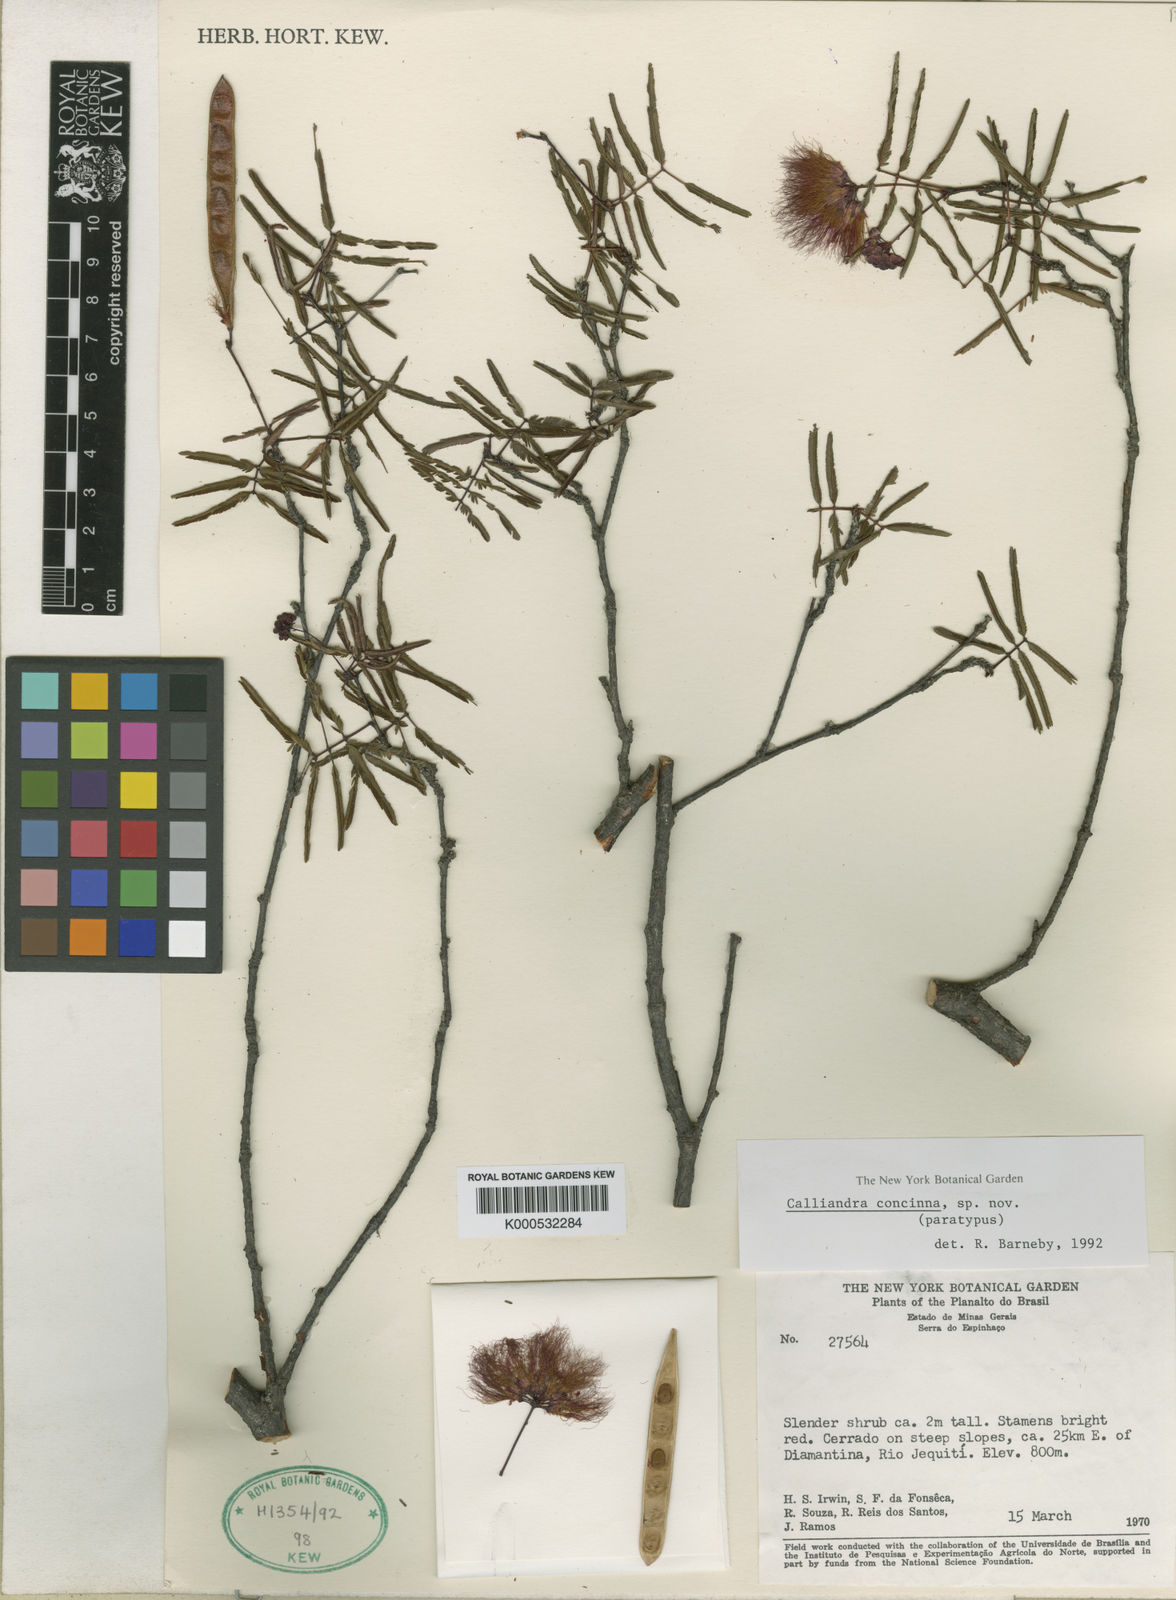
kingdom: Plantae
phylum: Tracheophyta
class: Magnoliopsida
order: Fabales
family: Fabaceae
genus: Calliandra
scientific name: Calliandra concinna
